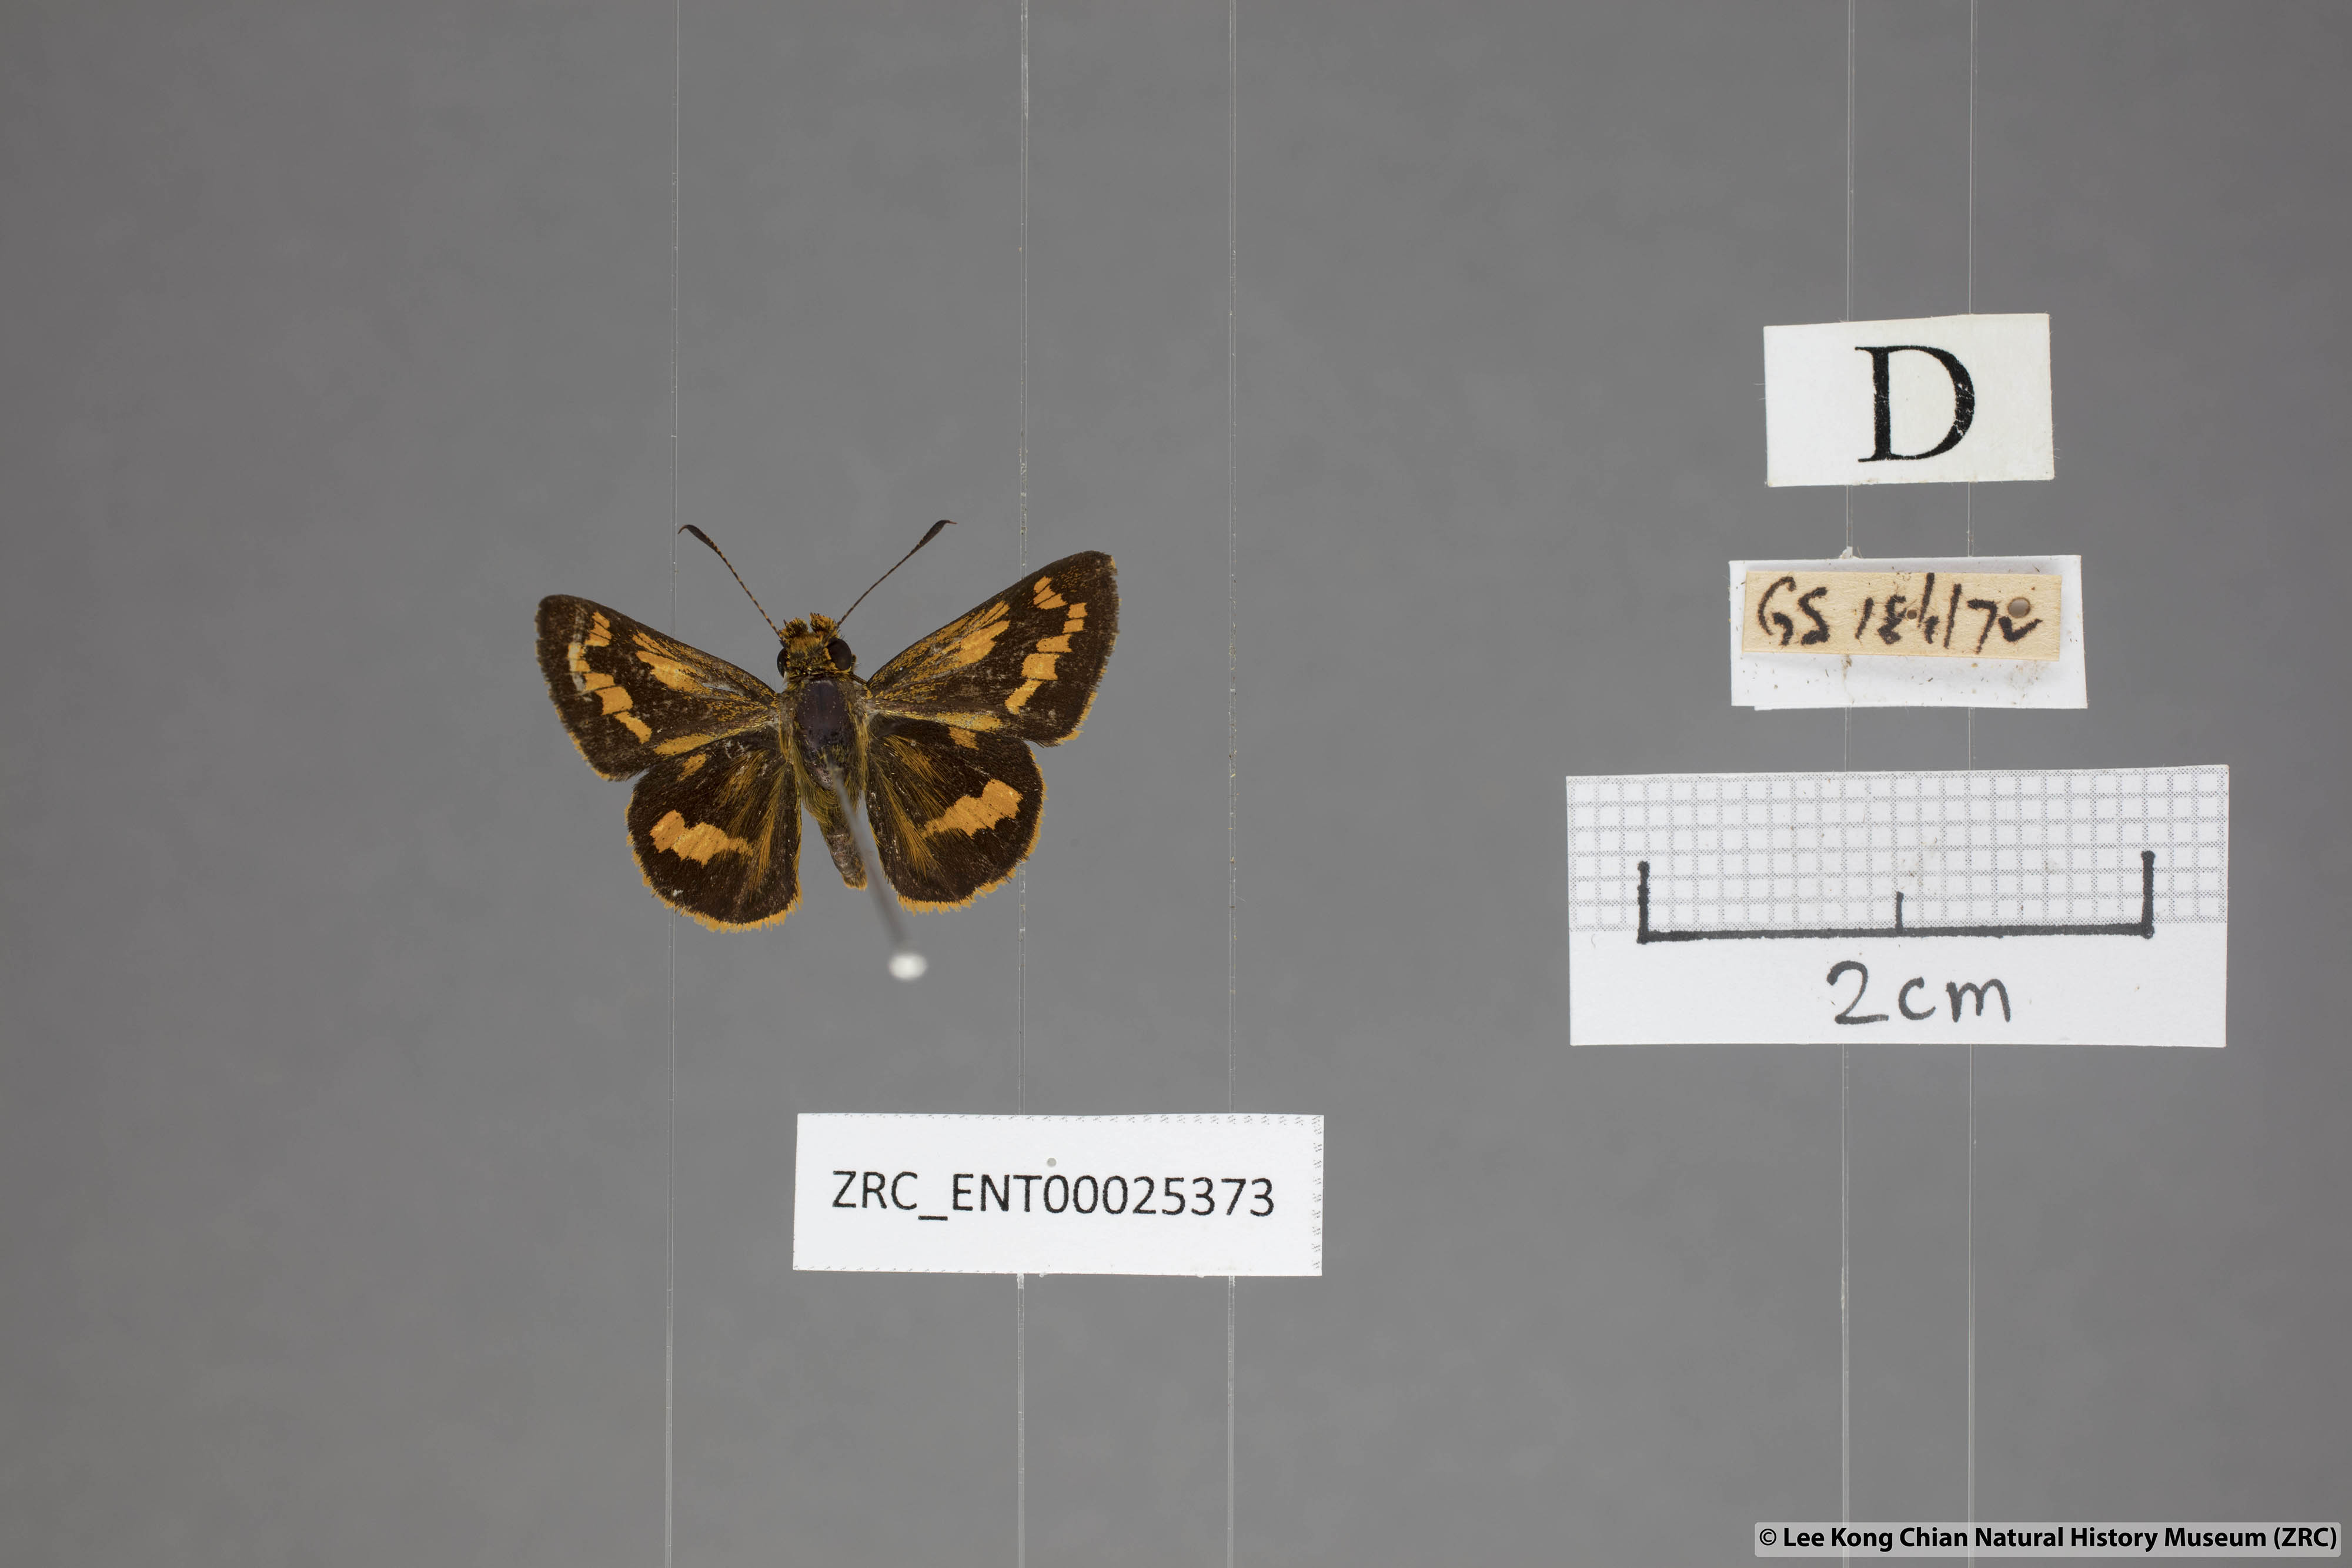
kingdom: Animalia
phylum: Arthropoda
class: Insecta
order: Lepidoptera
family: Hesperiidae
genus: Potanthus
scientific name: Potanthus ganda
